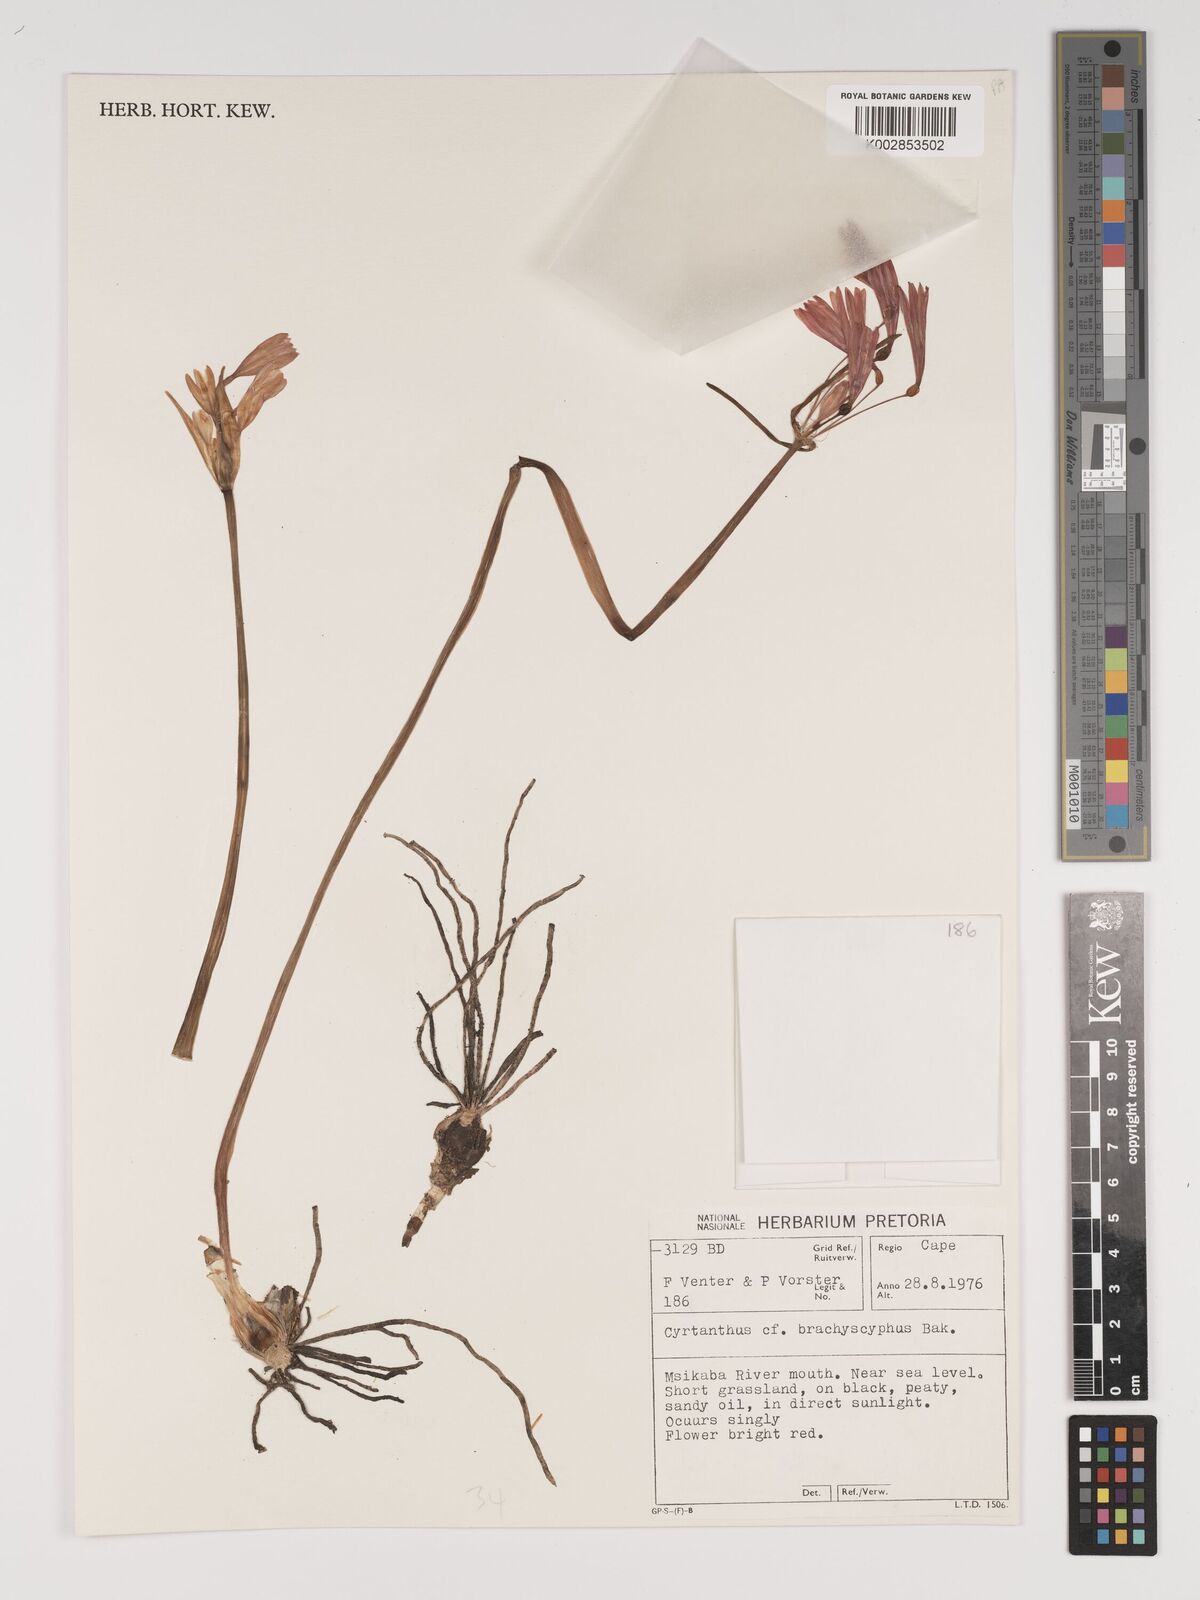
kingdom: Plantae
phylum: Tracheophyta
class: Liliopsida
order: Asparagales
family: Amaryllidaceae
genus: Cyrtanthus
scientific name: Cyrtanthus brachyscyphus
